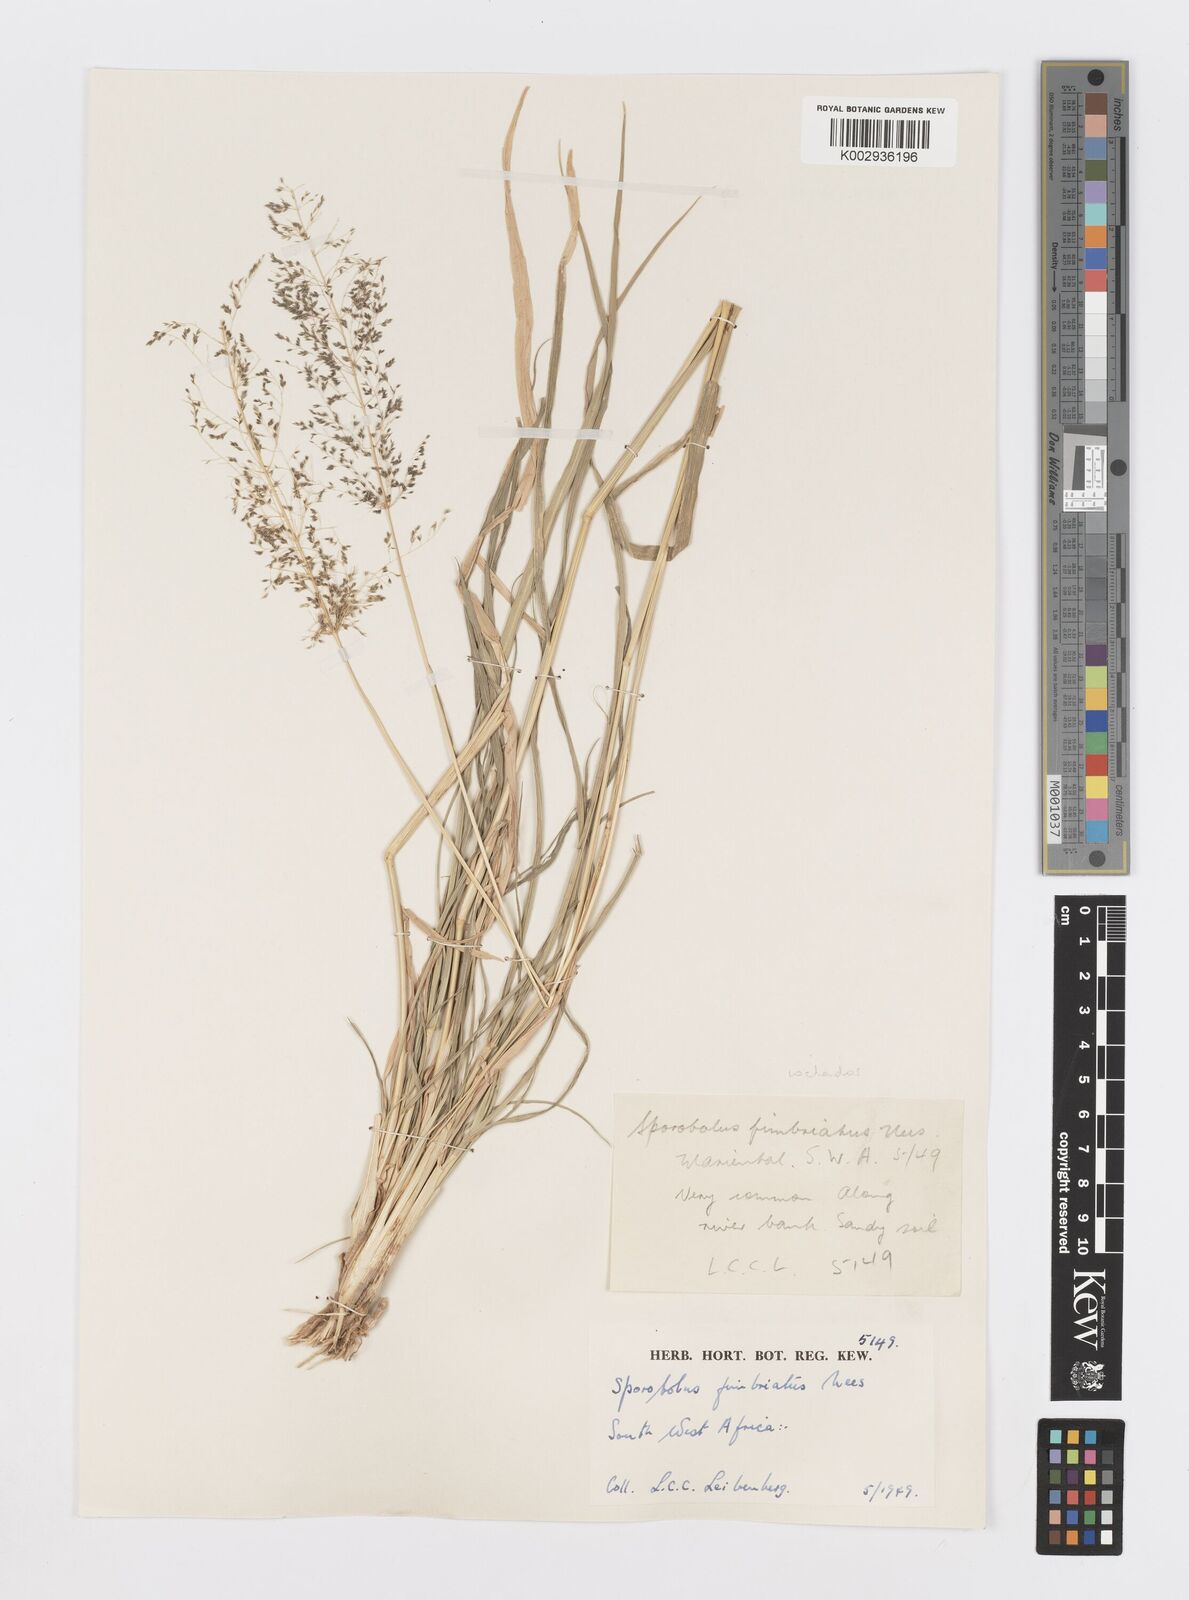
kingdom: Plantae
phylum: Tracheophyta
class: Liliopsida
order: Poales
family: Poaceae
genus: Sporobolus
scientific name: Sporobolus ioclados
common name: Pan dropseed
